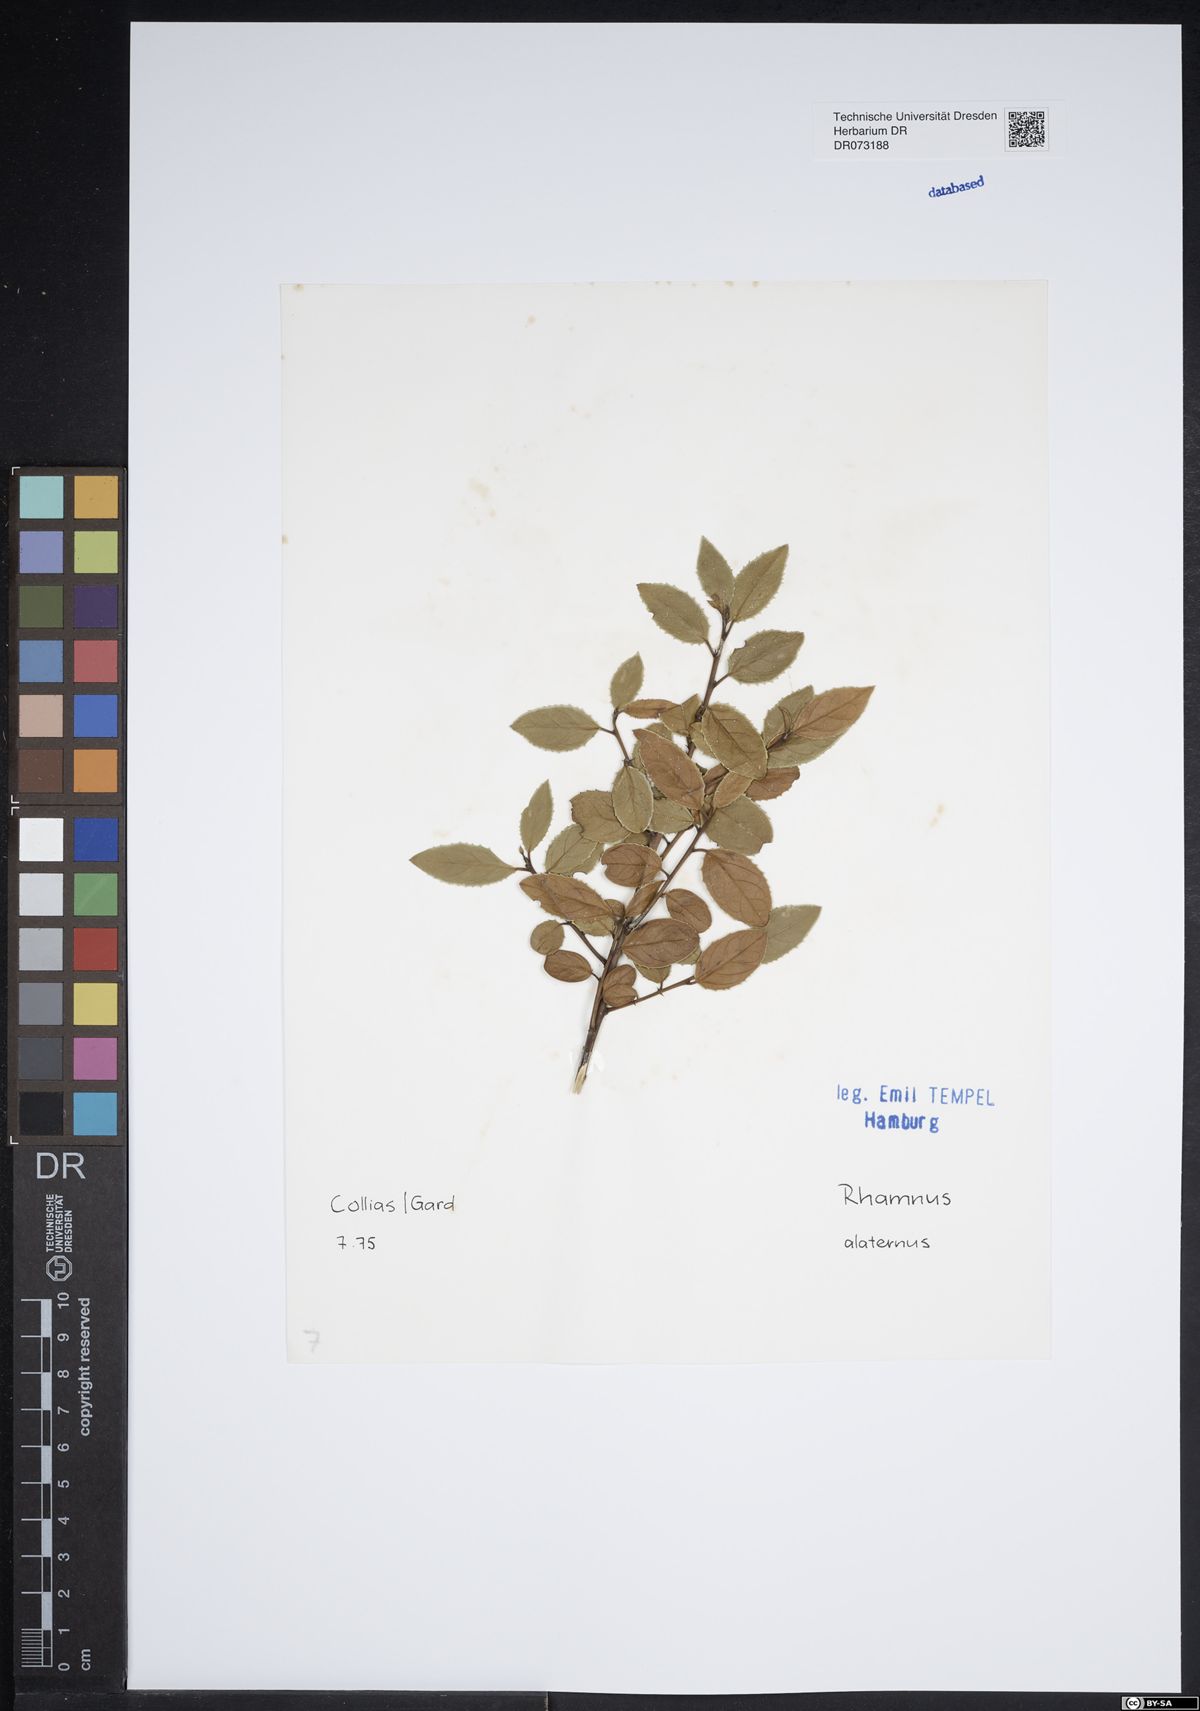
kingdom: Plantae
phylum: Tracheophyta
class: Magnoliopsida
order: Rosales
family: Rhamnaceae
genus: Rhamnus
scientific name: Rhamnus alaternus
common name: Mediterranean buckthorn
